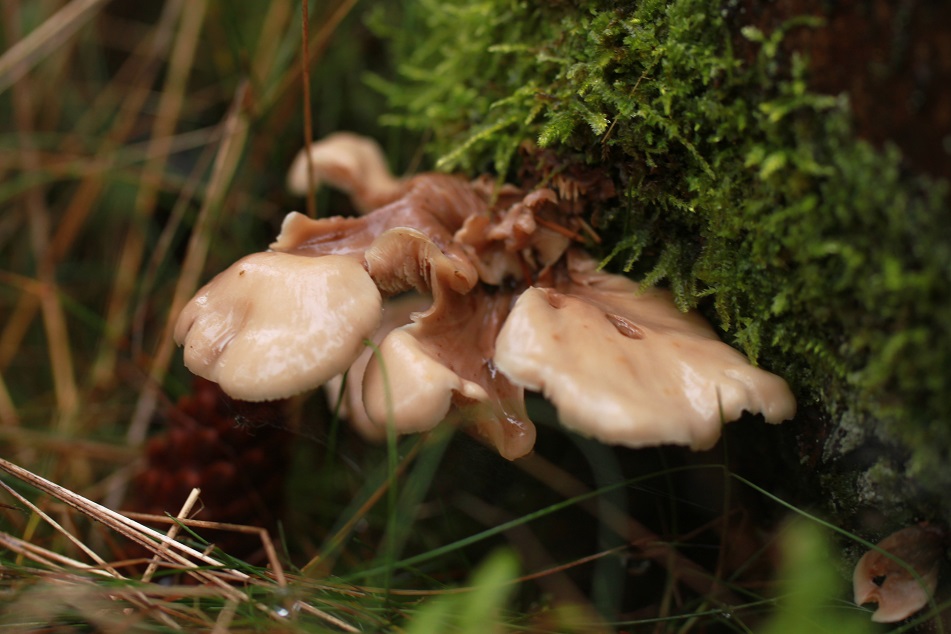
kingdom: Fungi
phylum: Basidiomycota
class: Agaricomycetes
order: Russulales
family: Auriscalpiaceae
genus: Lentinellus
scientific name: Lentinellus vulpinus
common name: randribbet savbladhat
